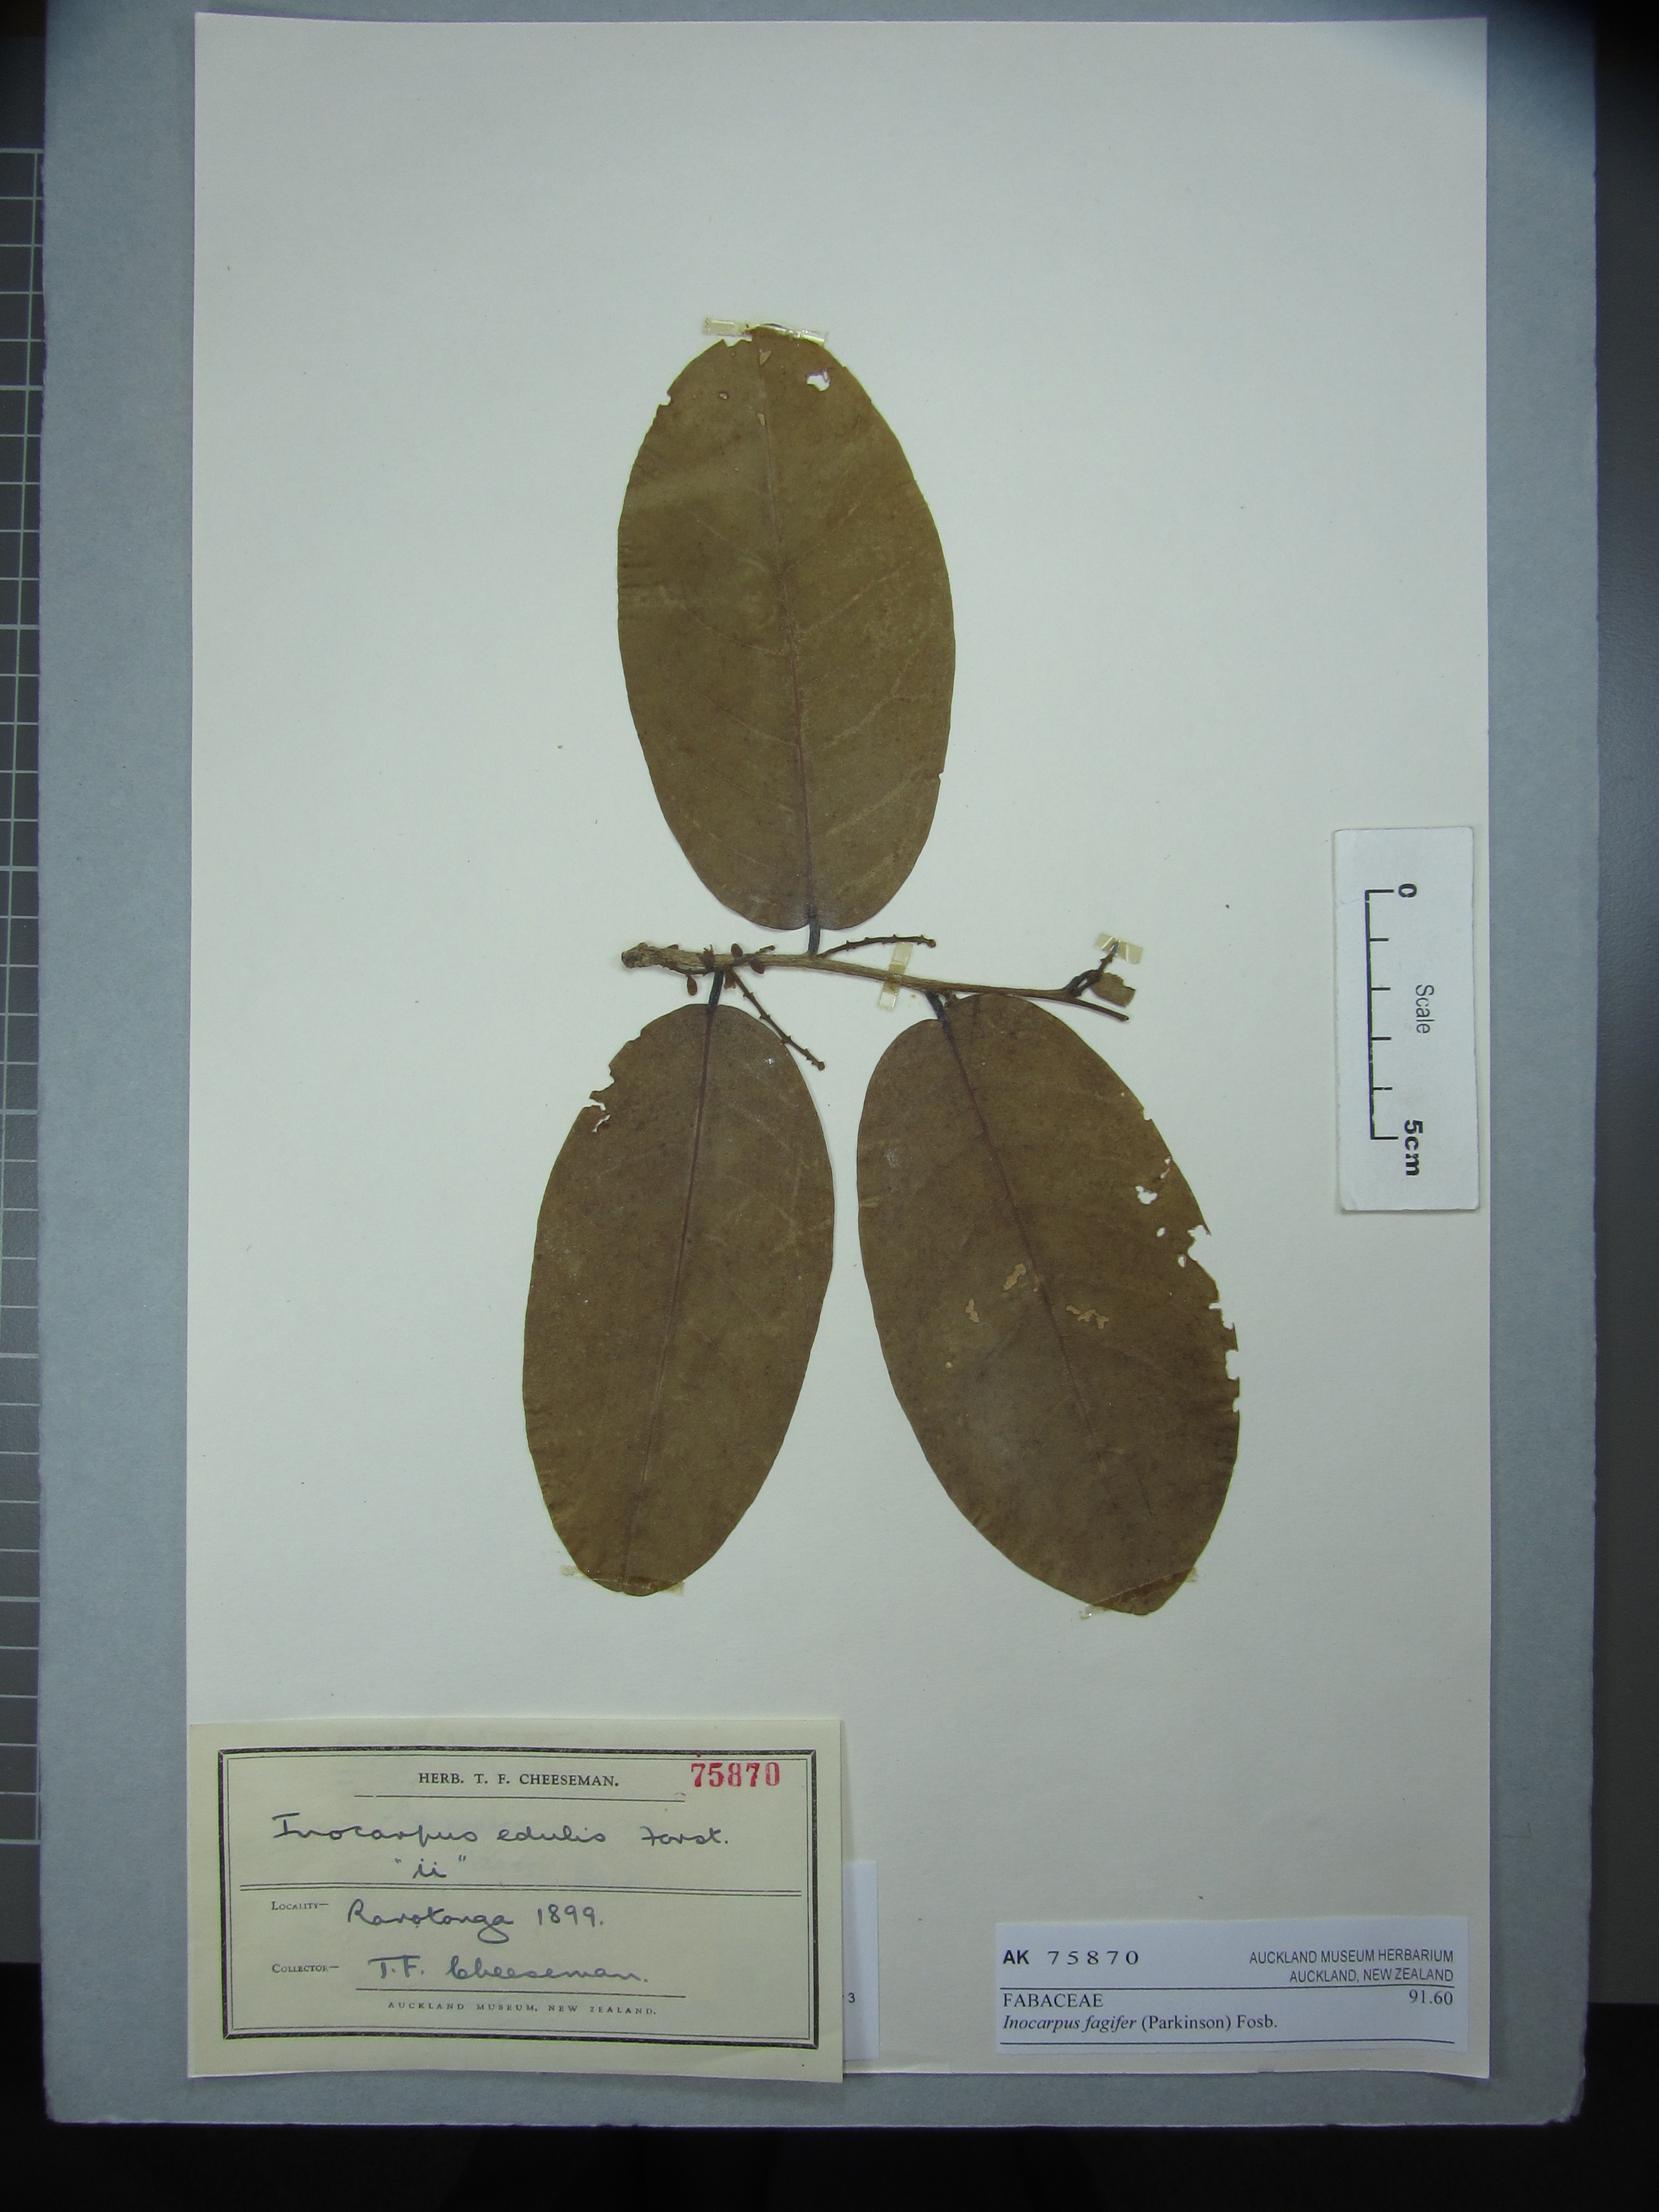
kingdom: Plantae
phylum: Tracheophyta
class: Magnoliopsida
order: Fabales
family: Fabaceae
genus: Inocarpus
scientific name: Inocarpus fagifer
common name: Polynesian chestnut
